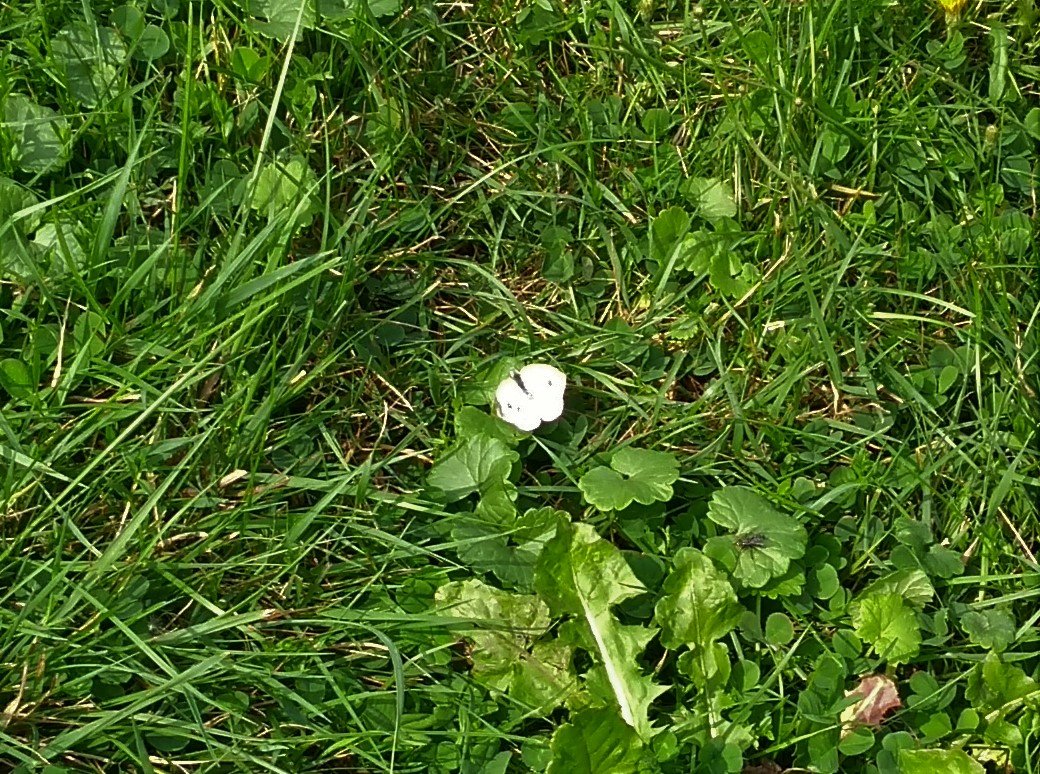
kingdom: Animalia
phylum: Arthropoda
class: Insecta
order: Lepidoptera
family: Pieridae
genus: Pieris
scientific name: Pieris rapae
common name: Cabbage White
